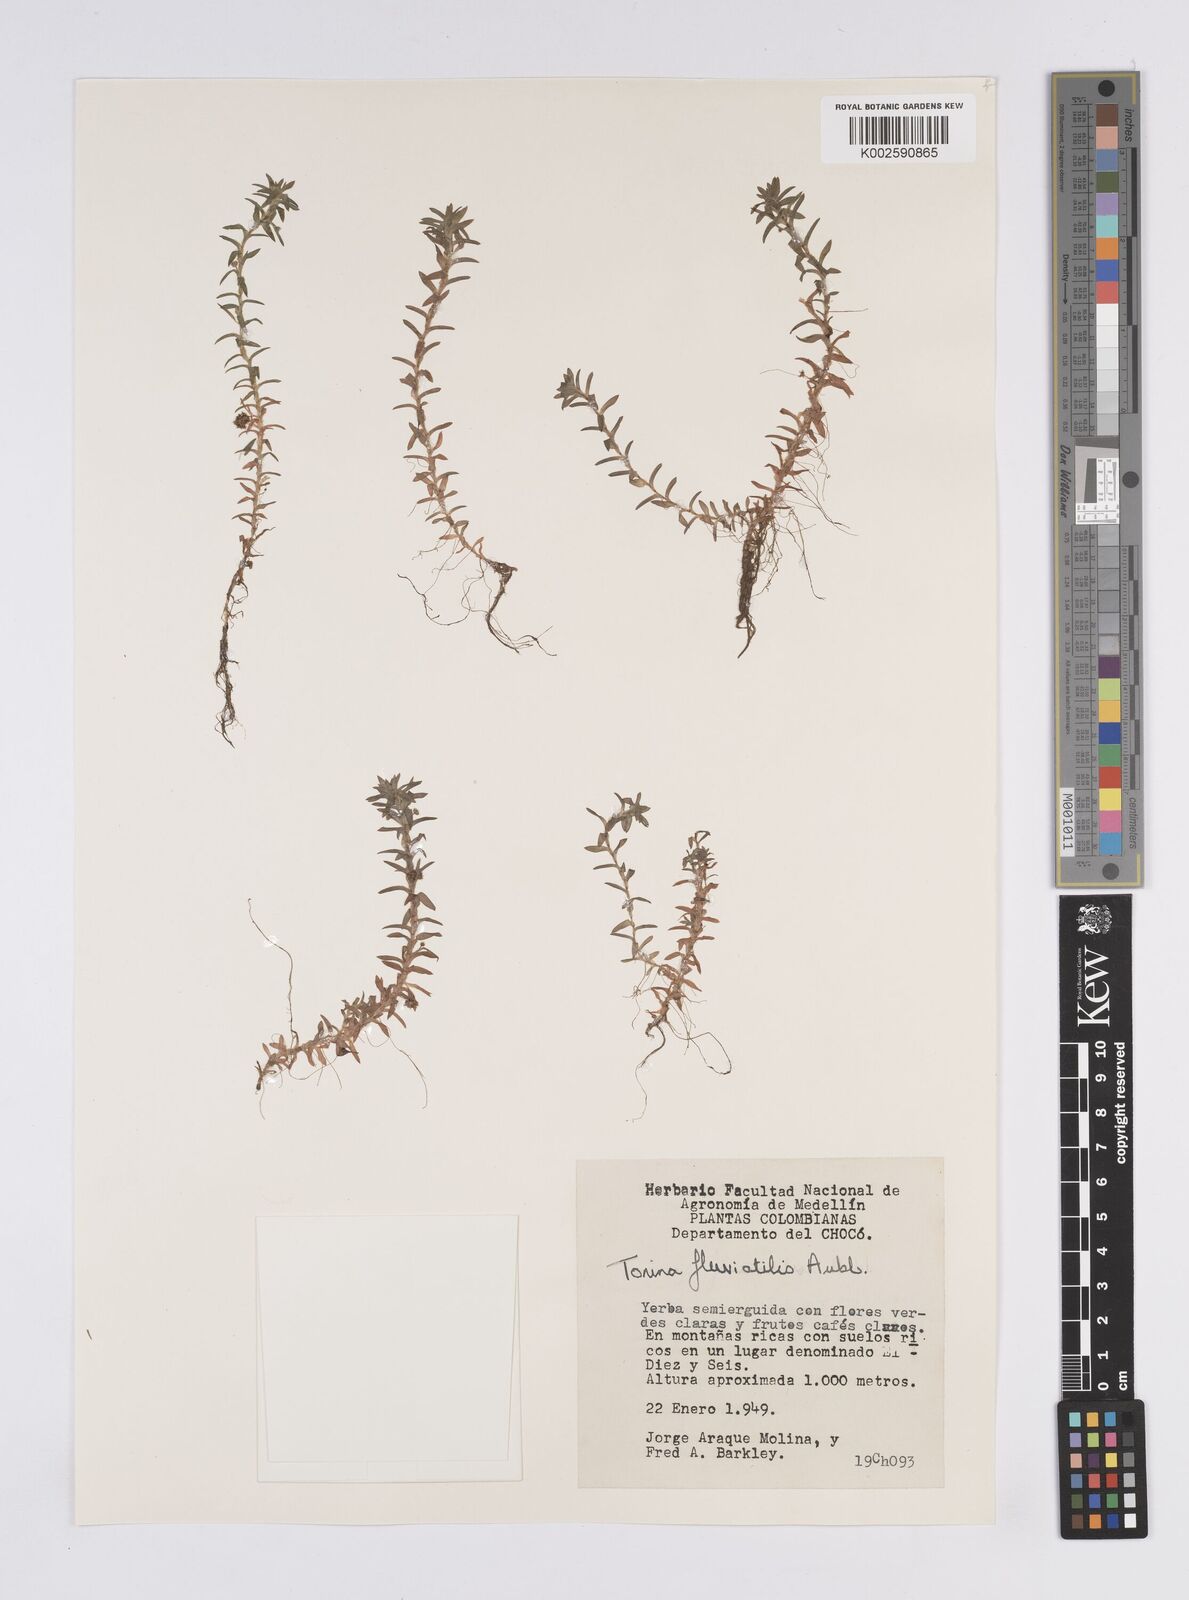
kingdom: Plantae
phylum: Tracheophyta
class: Liliopsida
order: Poales
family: Eriocaulaceae
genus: Paepalanthus
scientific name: Paepalanthus fluviatilis
